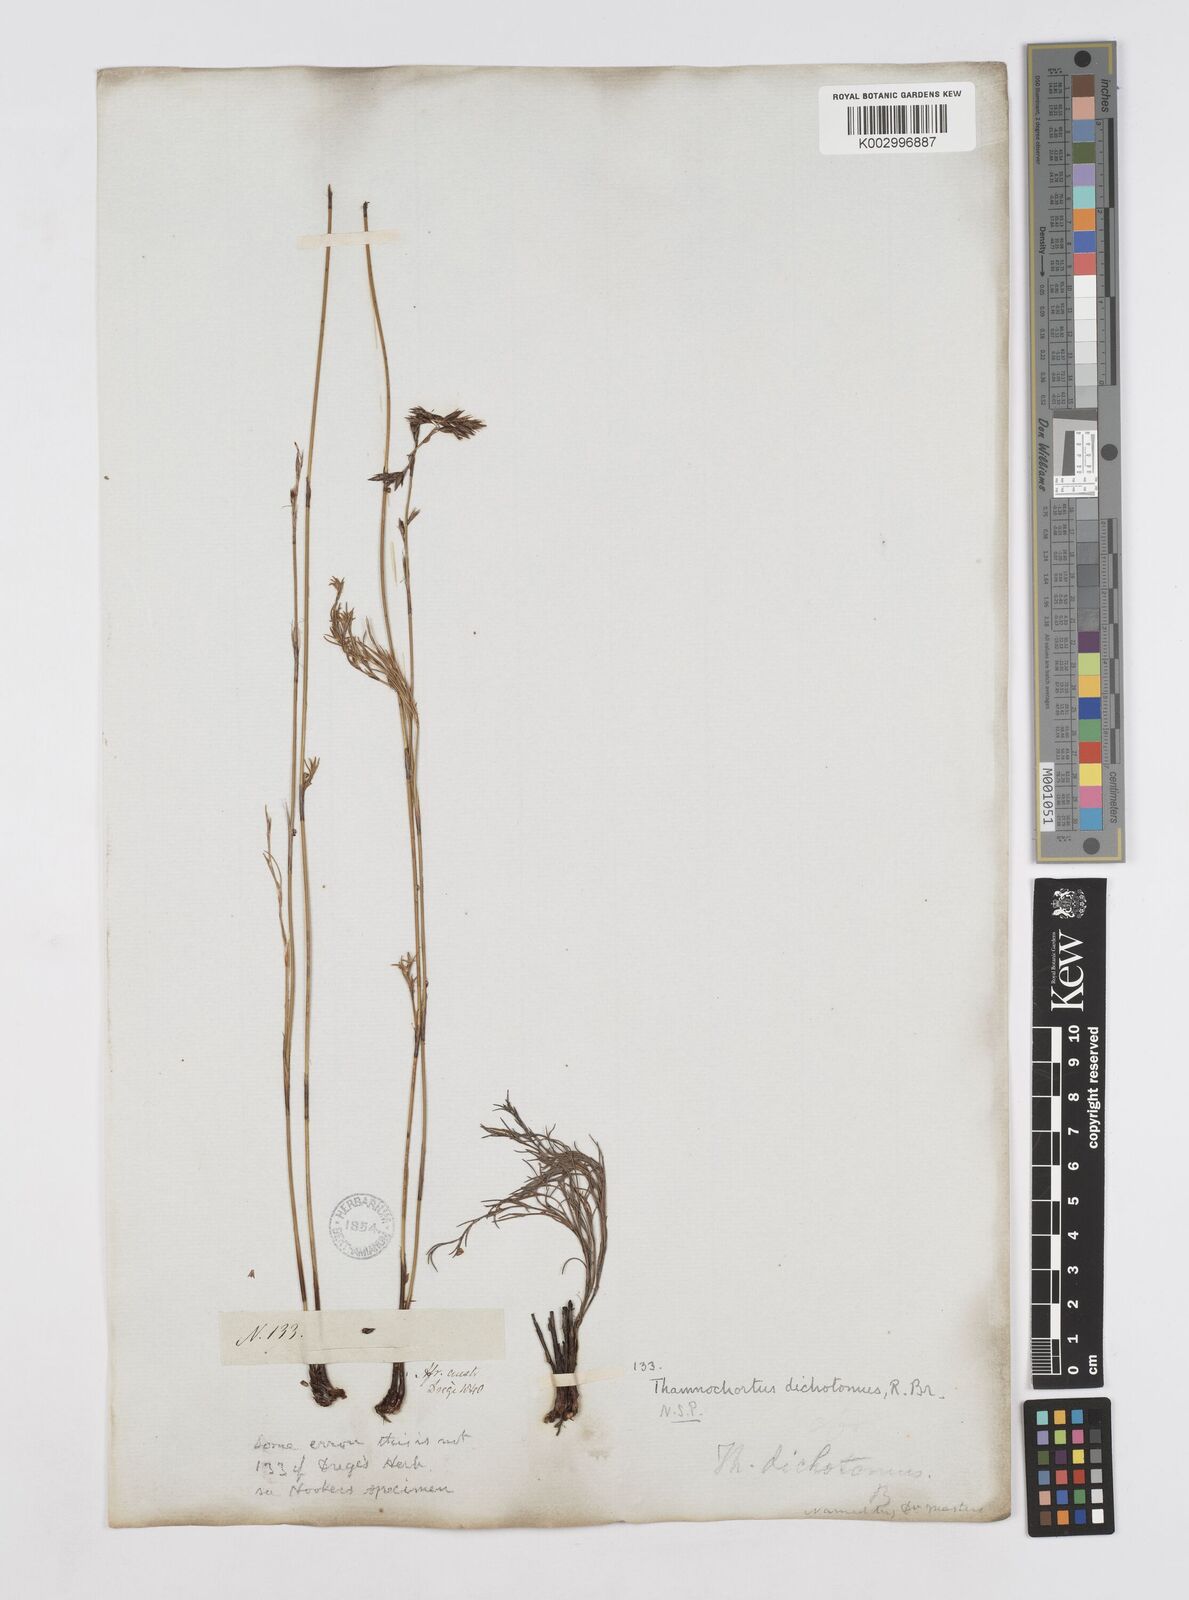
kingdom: Plantae
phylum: Tracheophyta
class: Liliopsida
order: Poales
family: Restionaceae
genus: Thamnochortus
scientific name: Thamnochortus lucens
